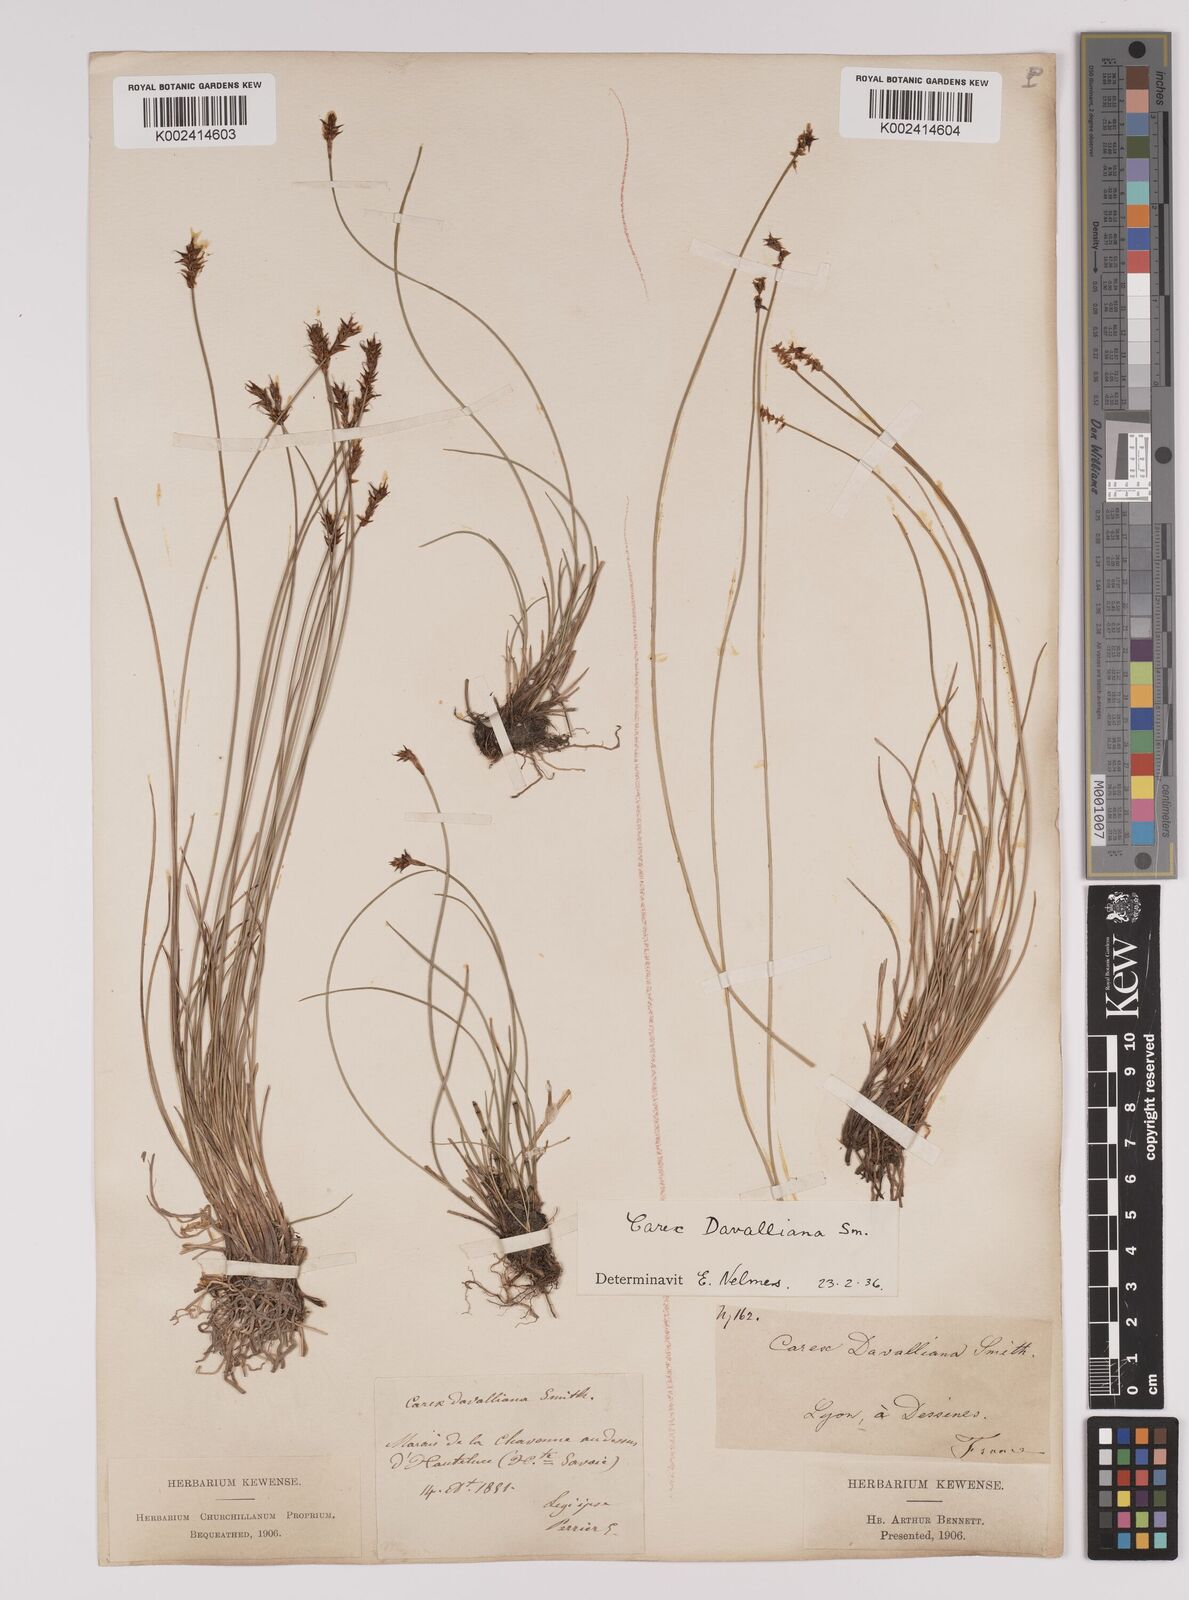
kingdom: Plantae
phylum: Tracheophyta
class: Liliopsida
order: Poales
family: Cyperaceae
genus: Carex
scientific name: Carex davalliana
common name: Davall's sedge
